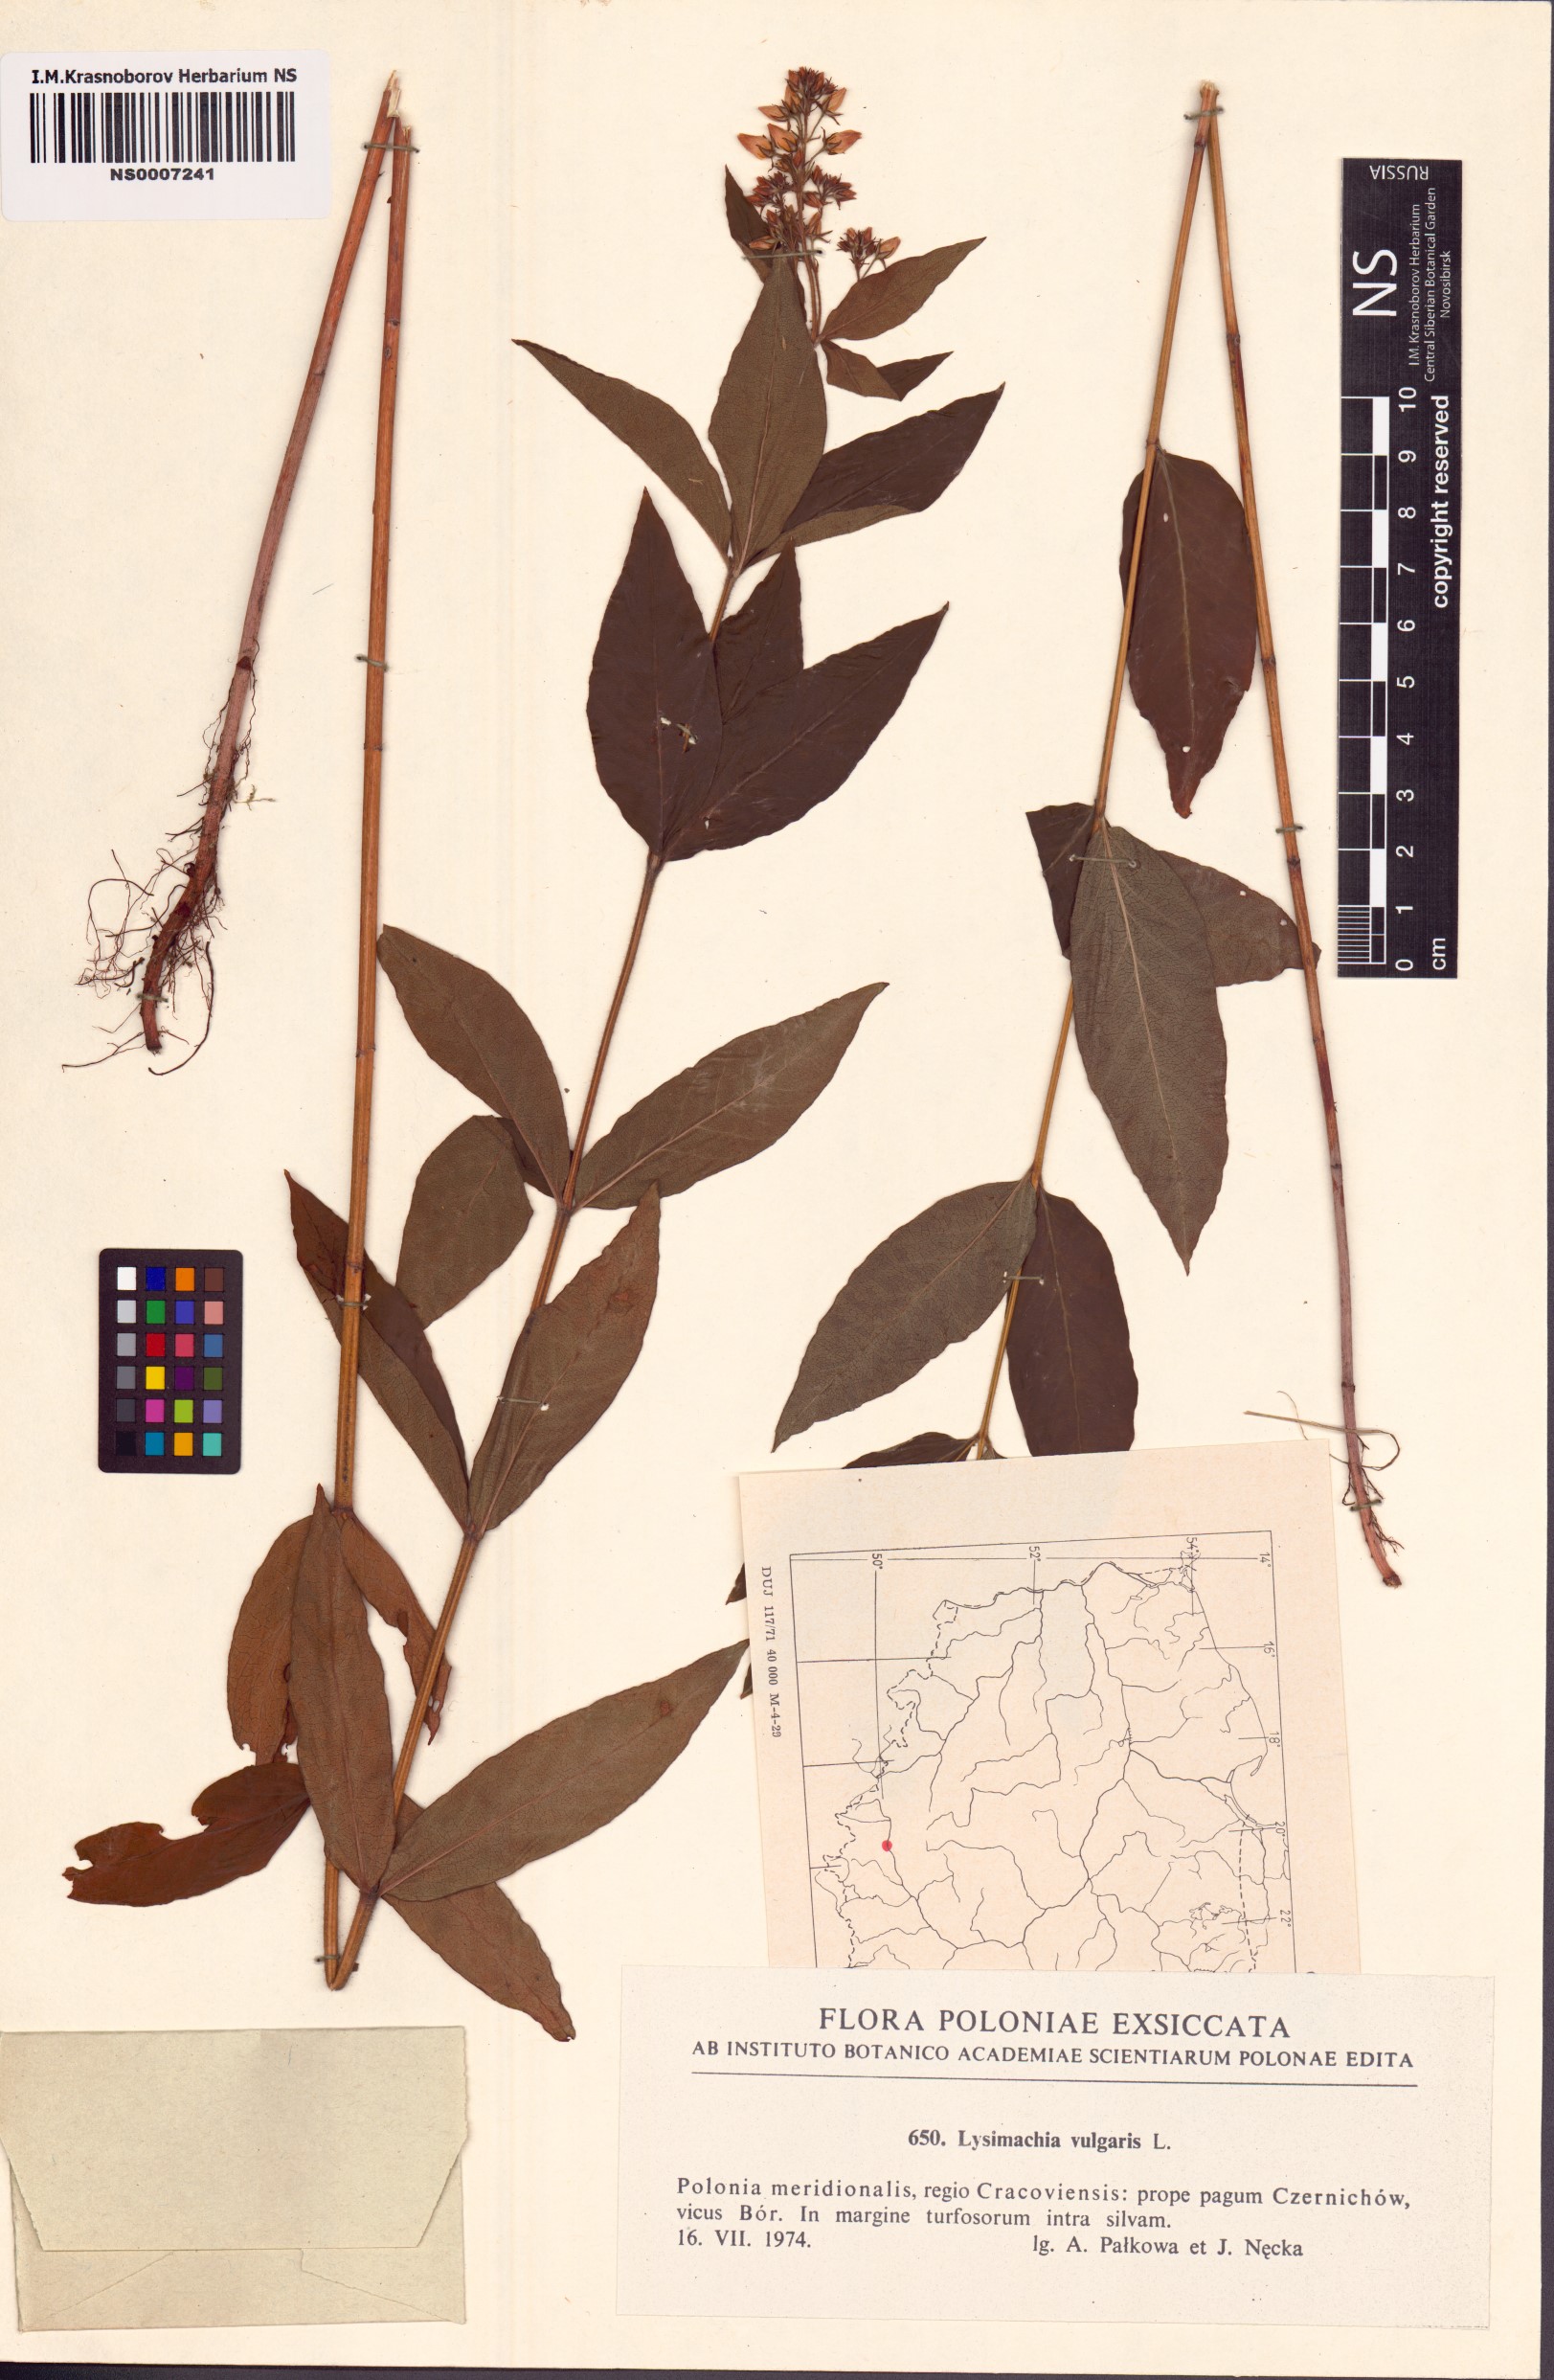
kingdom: Plantae
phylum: Tracheophyta
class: Magnoliopsida
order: Ericales
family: Primulaceae
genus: Lysimachia
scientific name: Lysimachia vulgaris
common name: Yellow loosestrife
